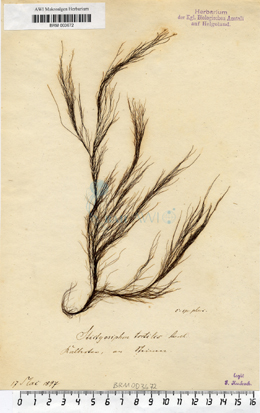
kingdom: Chromista
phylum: Ochrophyta
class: Phaeophyceae
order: Ectocarpales
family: Chordariaceae
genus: Stictyosiphon
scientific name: Stictyosiphon tortilis
